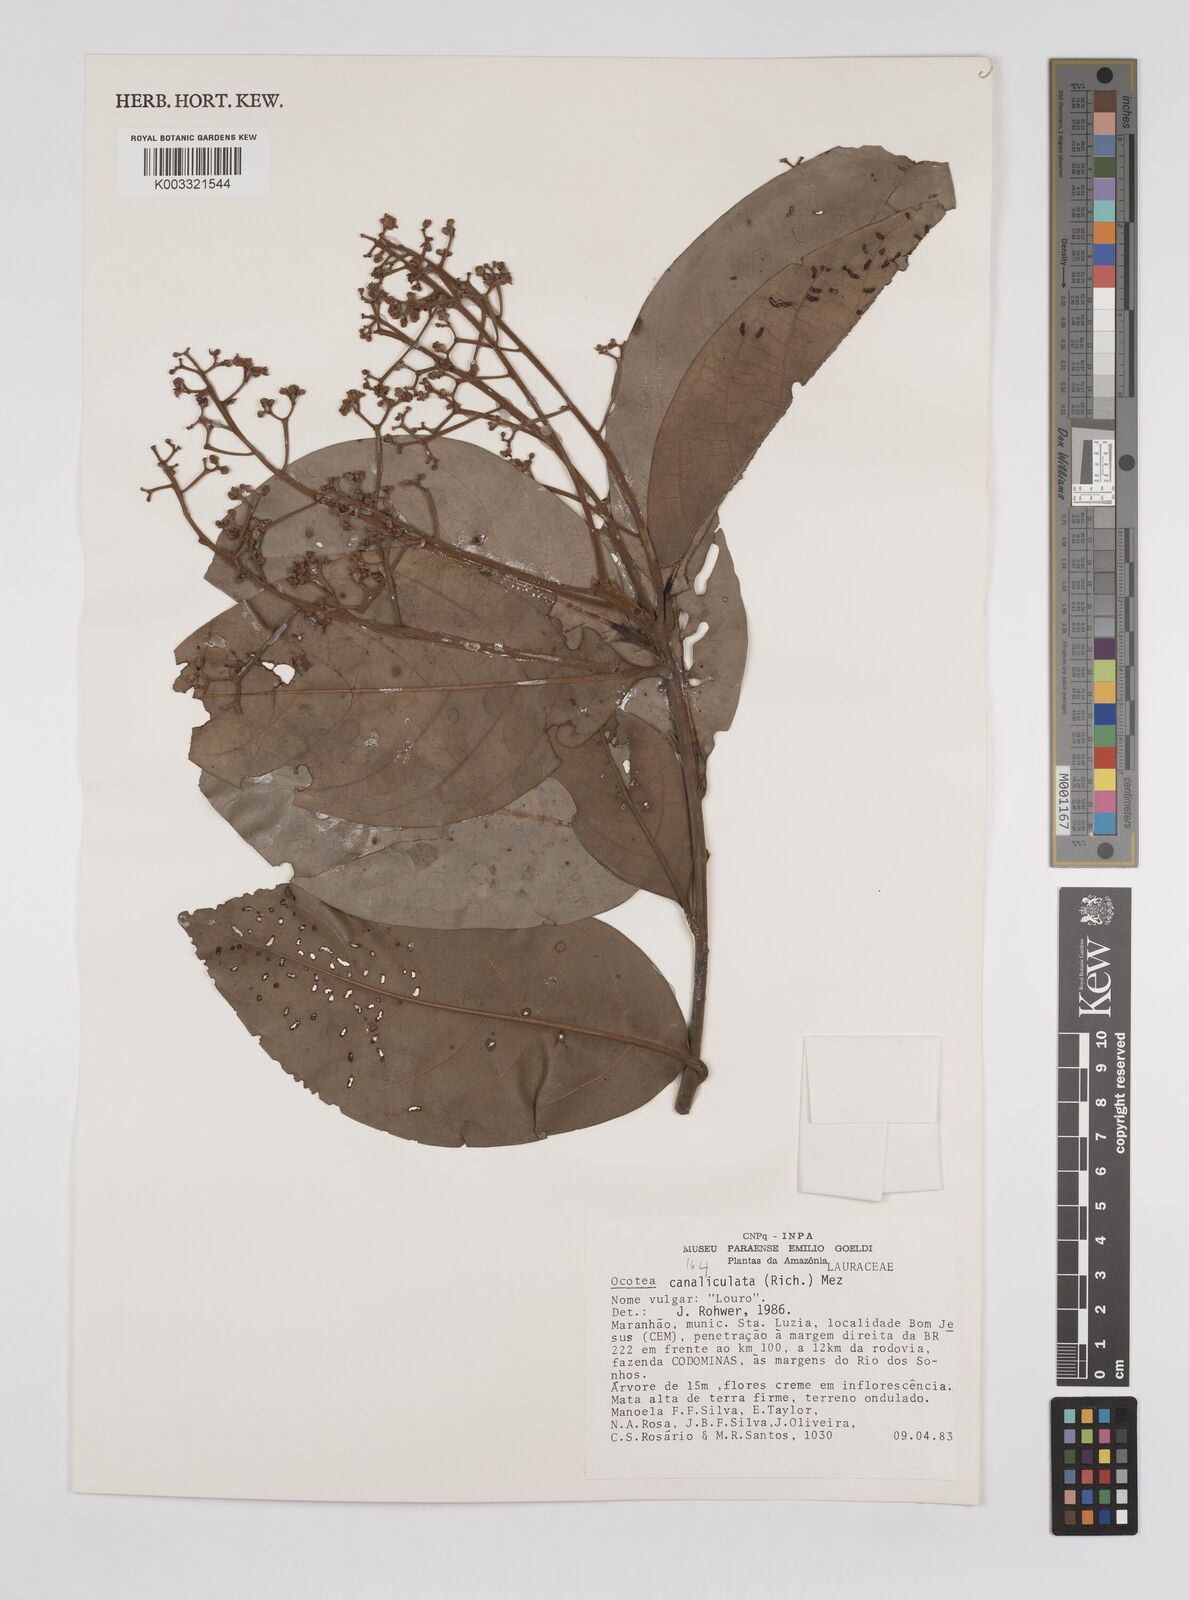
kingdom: Plantae
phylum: Tracheophyta
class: Magnoliopsida
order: Laurales
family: Lauraceae
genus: Ocotea
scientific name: Ocotea canaliculata
